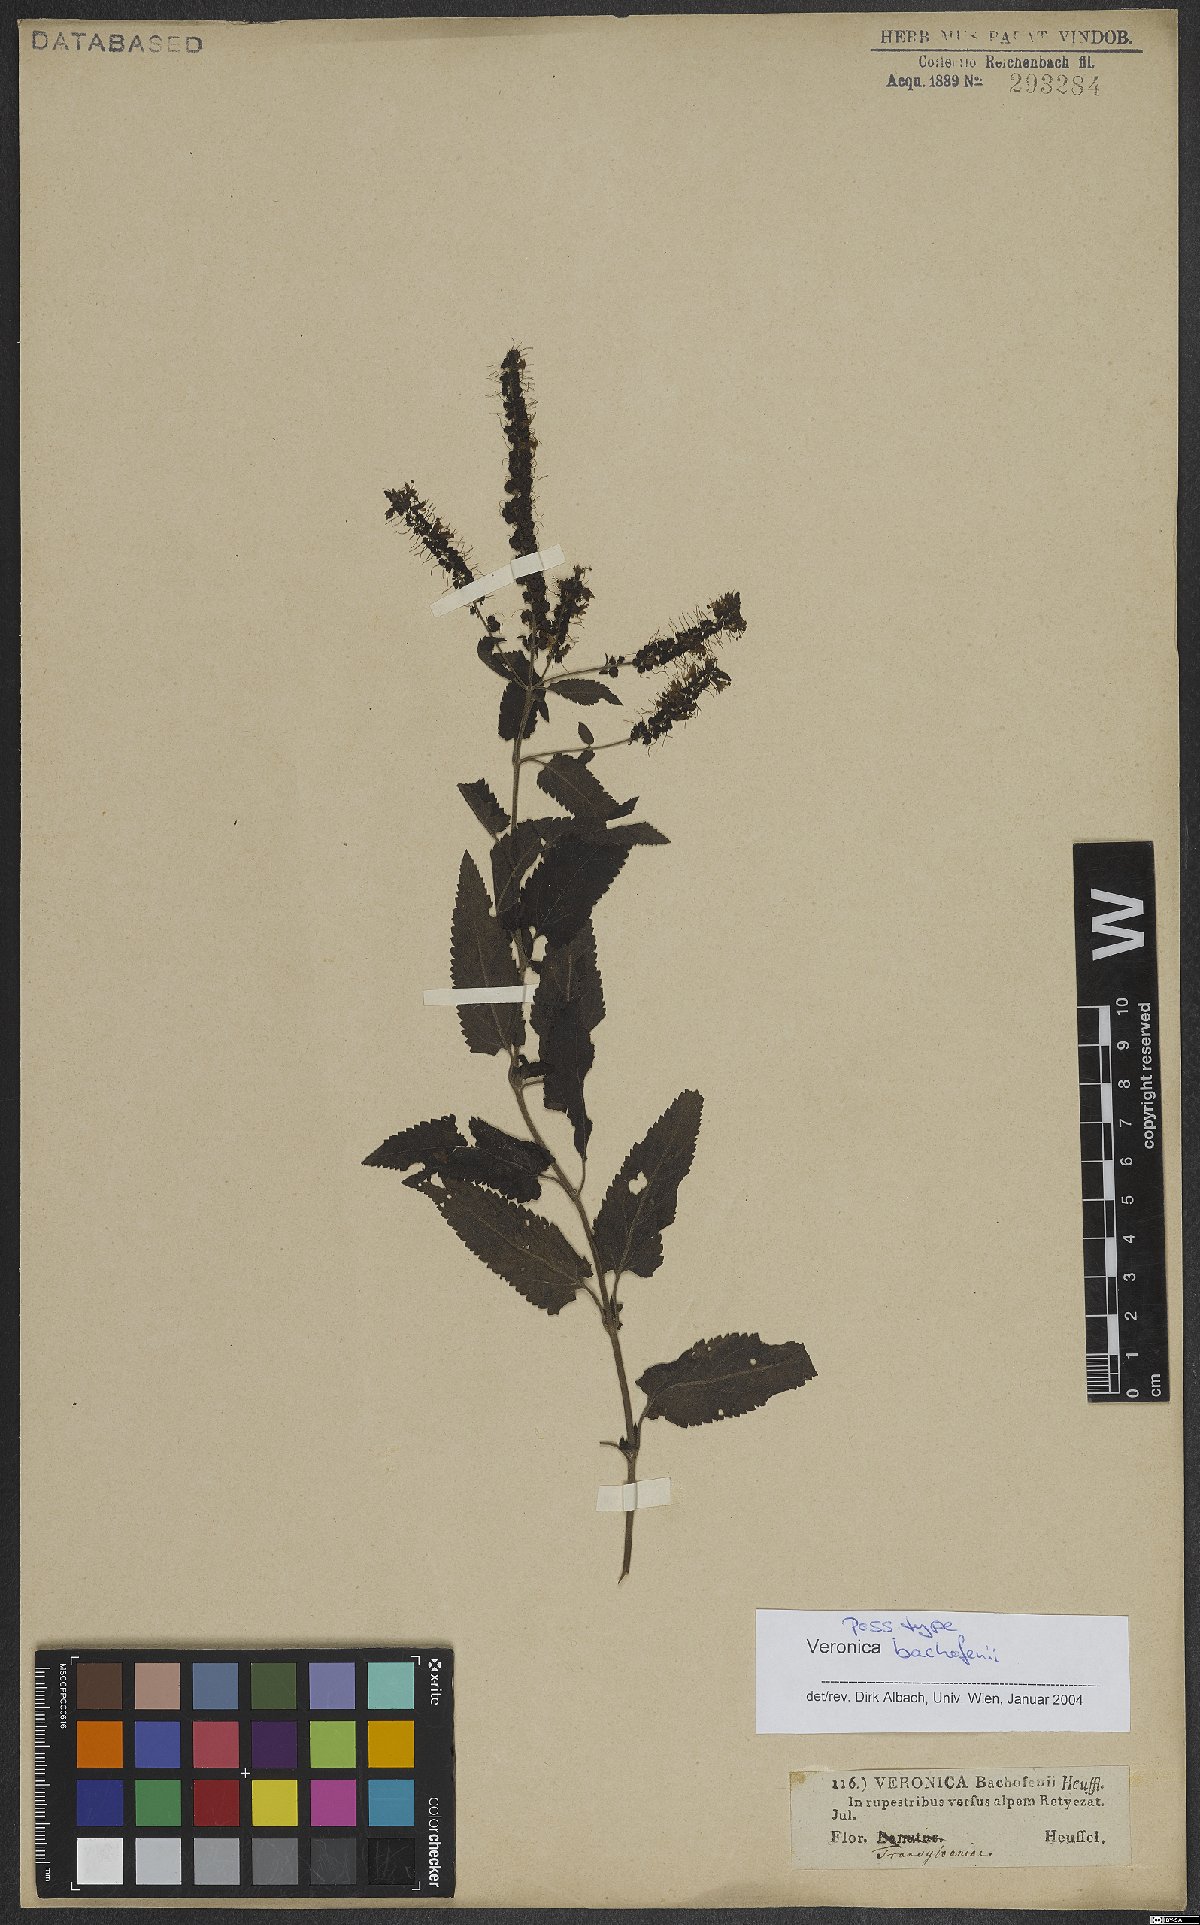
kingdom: Plantae
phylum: Tracheophyta
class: Magnoliopsida
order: Lamiales
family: Plantaginaceae
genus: Veronica
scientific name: Veronica bachofenii
